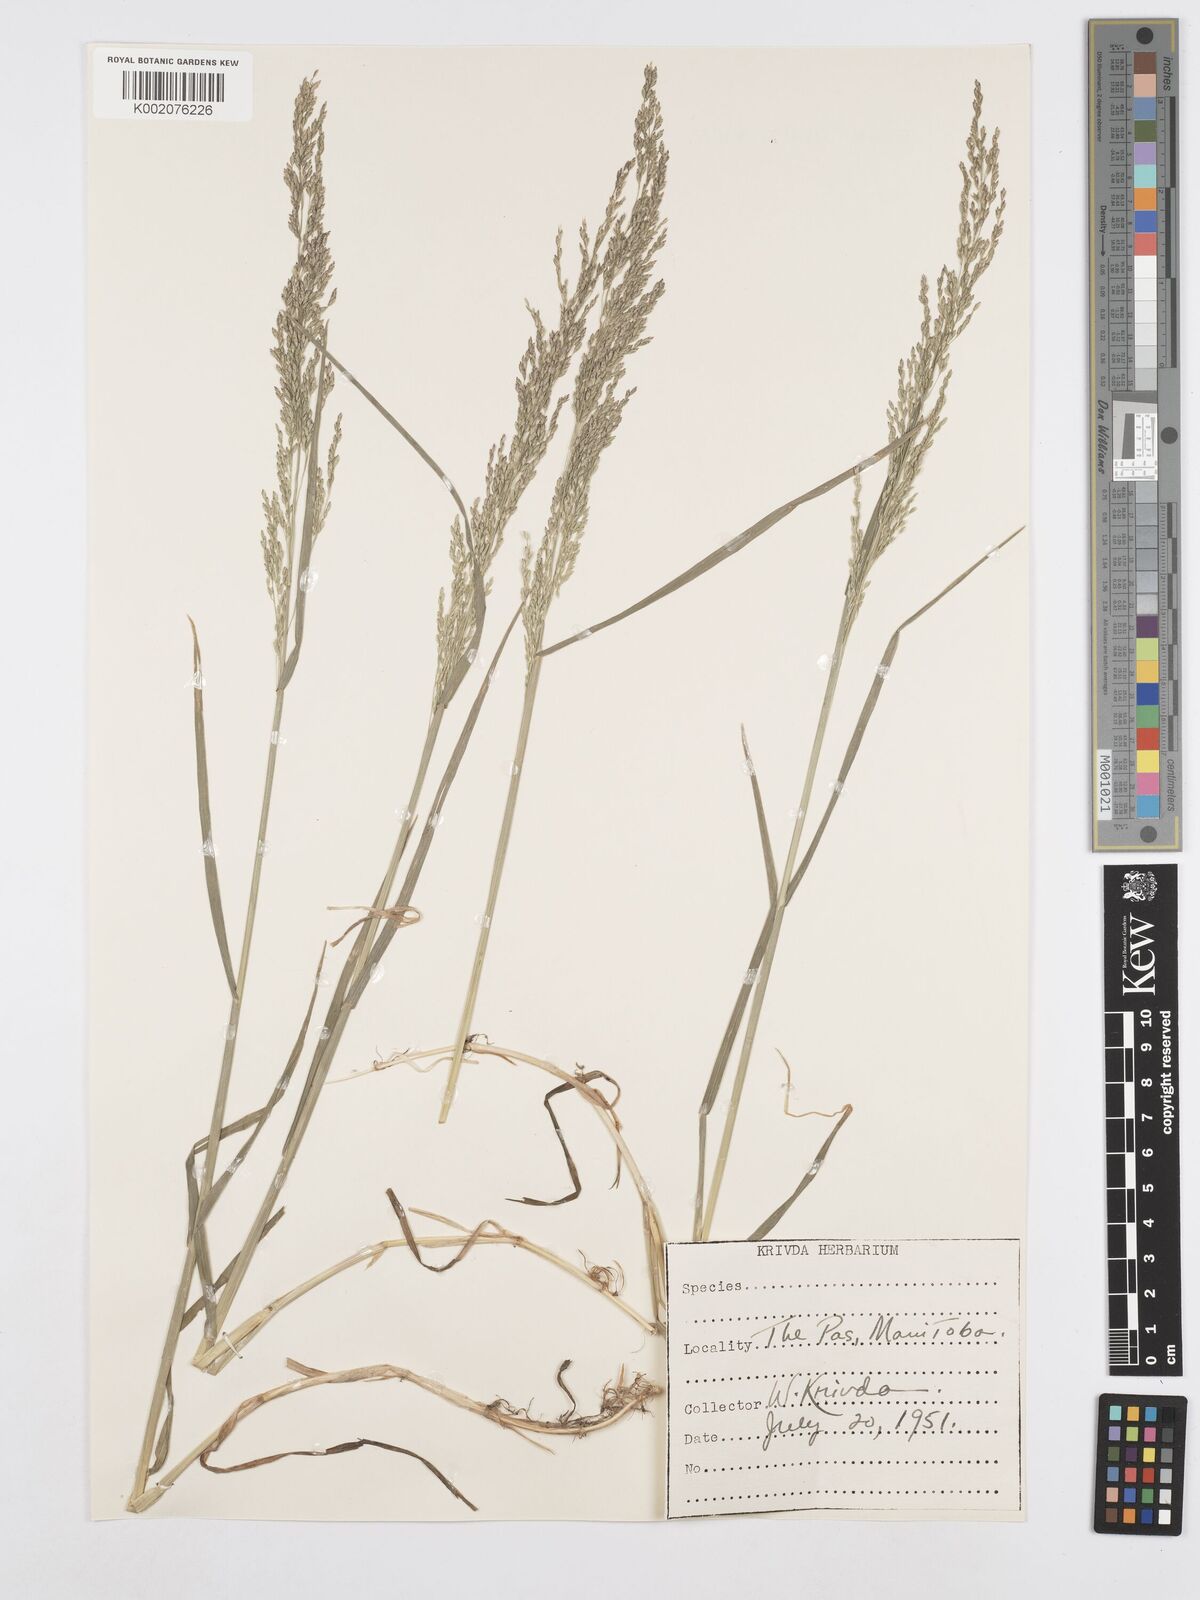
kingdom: Plantae
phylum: Tracheophyta
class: Liliopsida
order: Poales
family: Poaceae
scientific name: Poaceae
